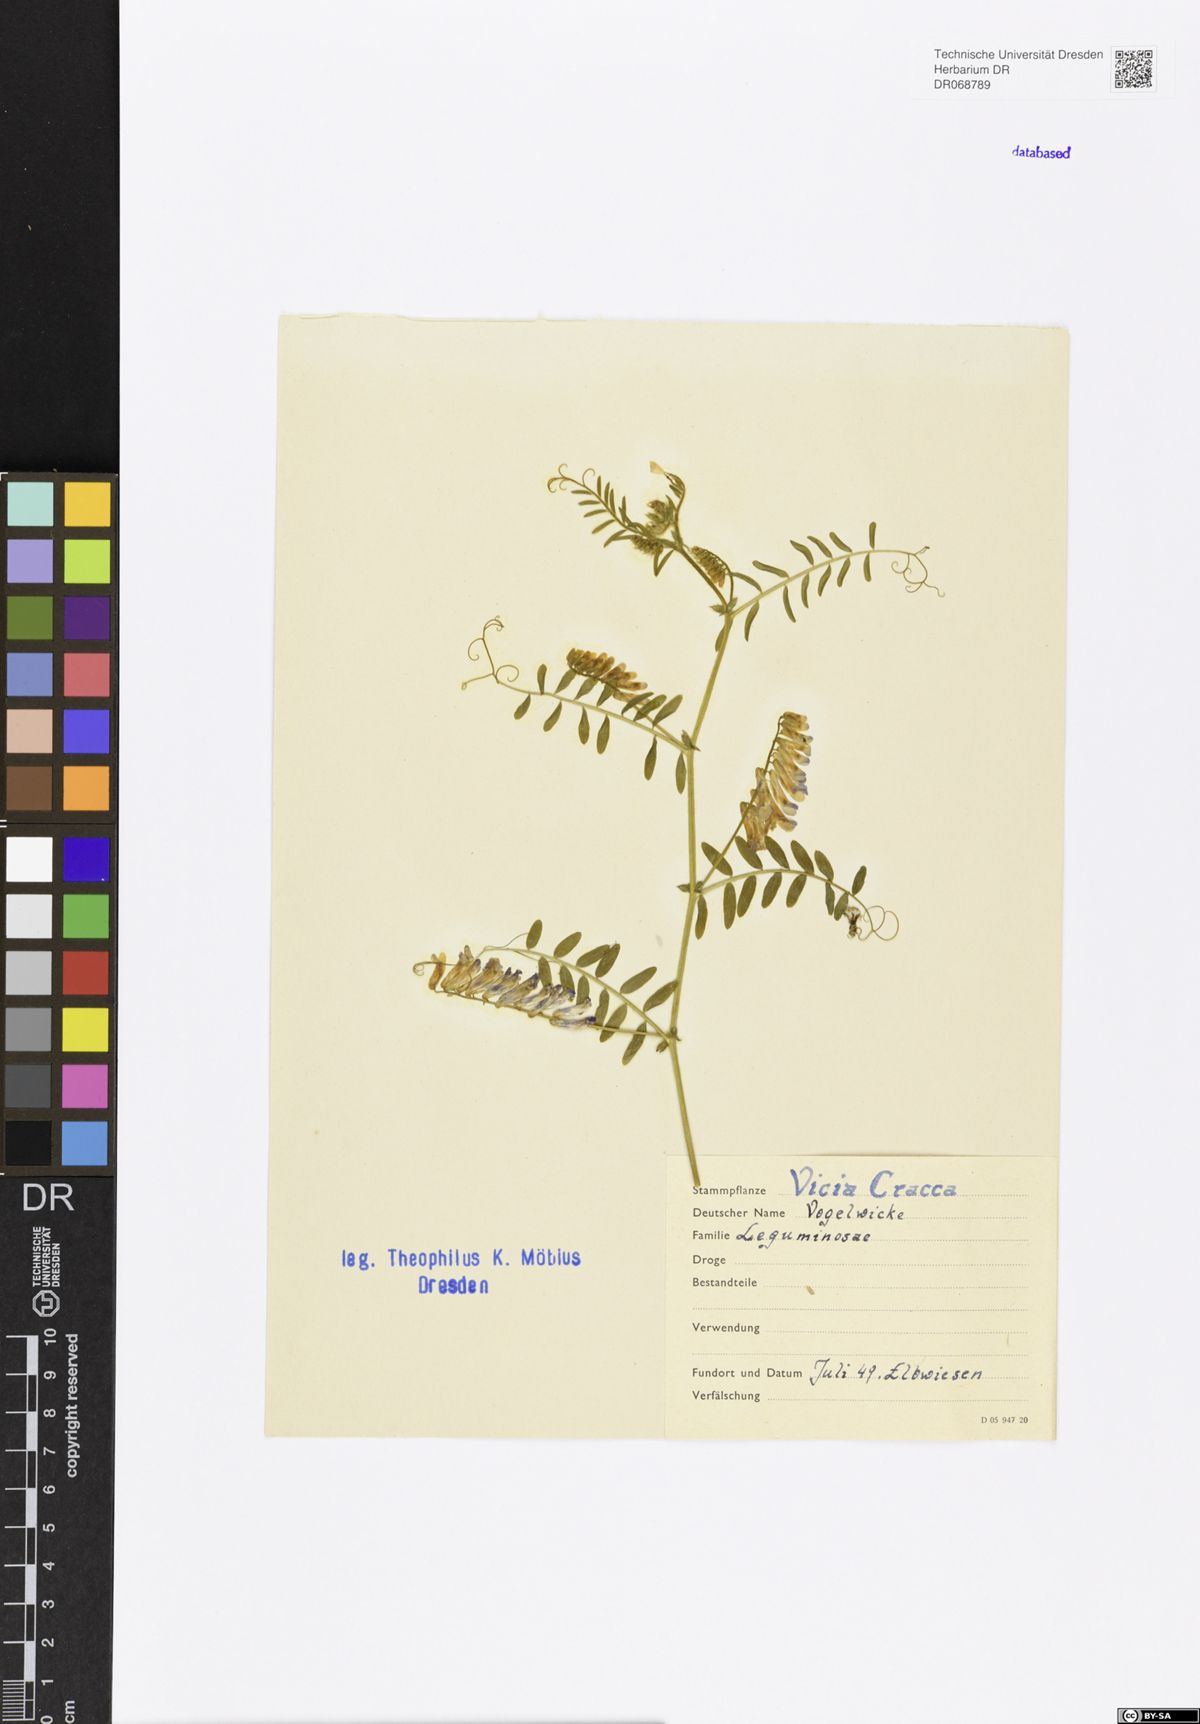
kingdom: Plantae
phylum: Tracheophyta
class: Magnoliopsida
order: Fabales
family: Fabaceae
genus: Vicia
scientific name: Vicia cracca
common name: Bird vetch
